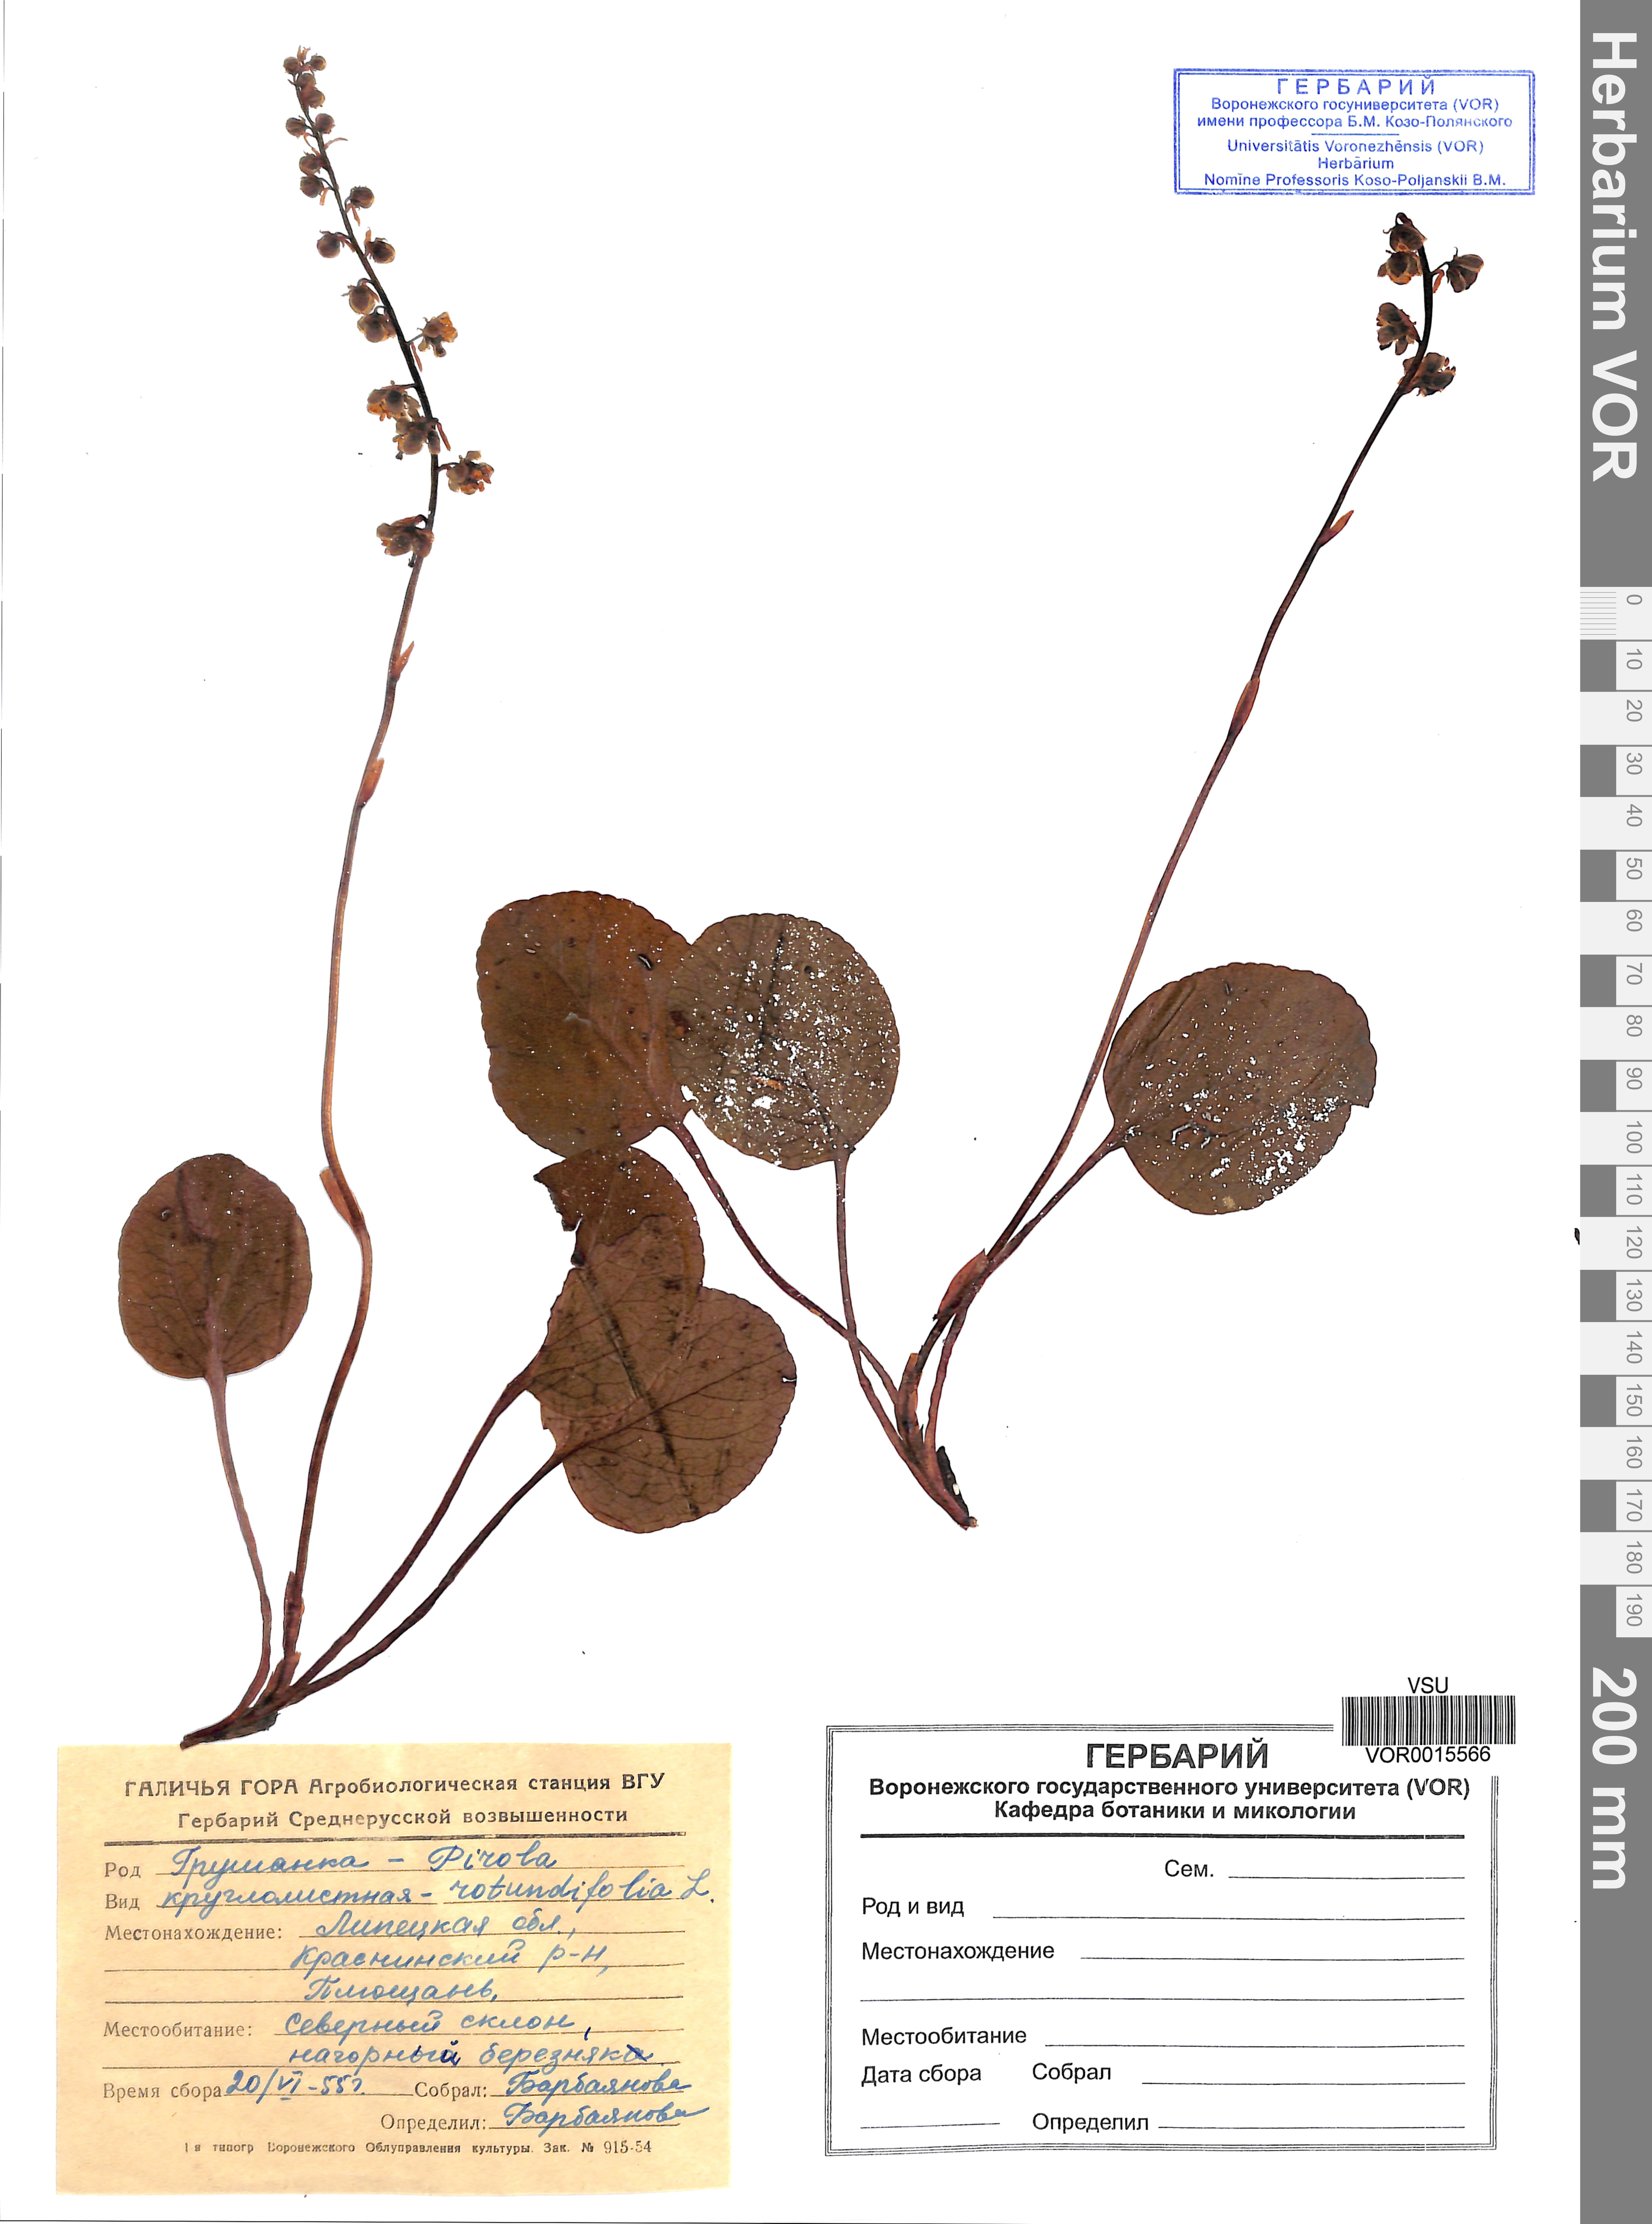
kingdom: Plantae
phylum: Tracheophyta
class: Magnoliopsida
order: Ericales
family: Ericaceae
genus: Pyrola
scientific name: Pyrola rotundifolia
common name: Round-leaved wintergreen
